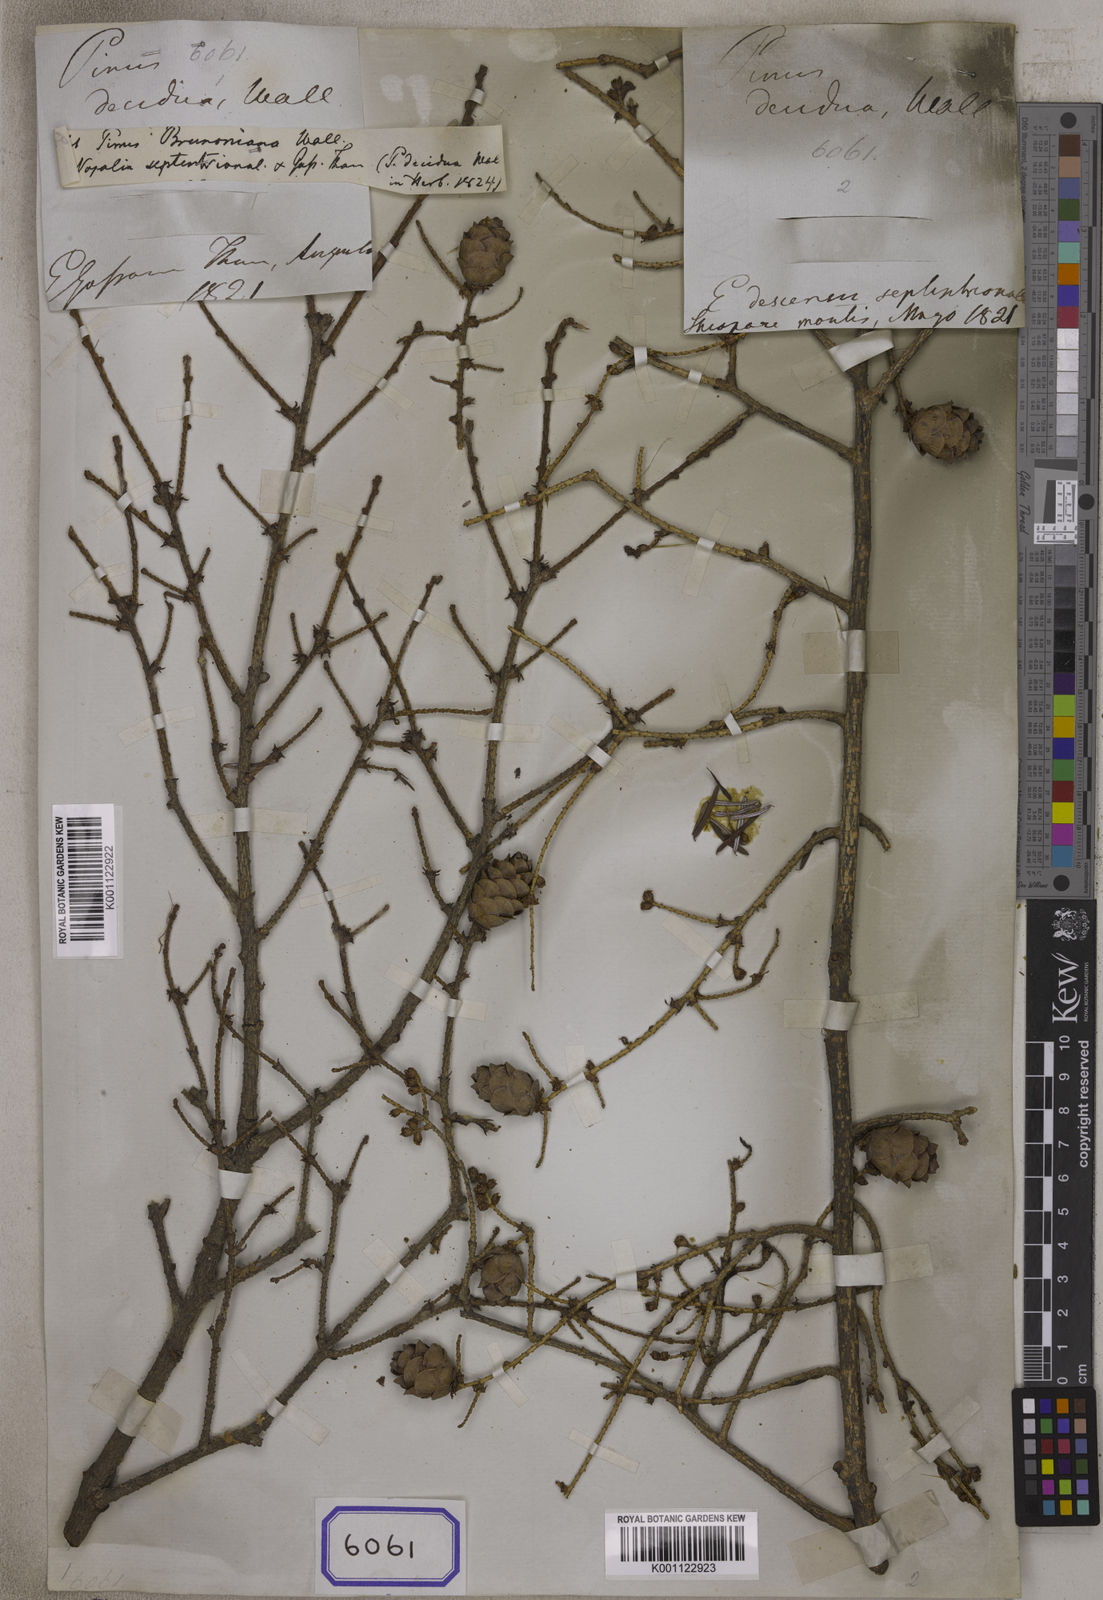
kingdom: Plantae
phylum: Tracheophyta
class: Pinopsida
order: Pinales
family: Pinaceae
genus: Tsuga
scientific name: Tsuga dumosa
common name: Himalayan hemlock
